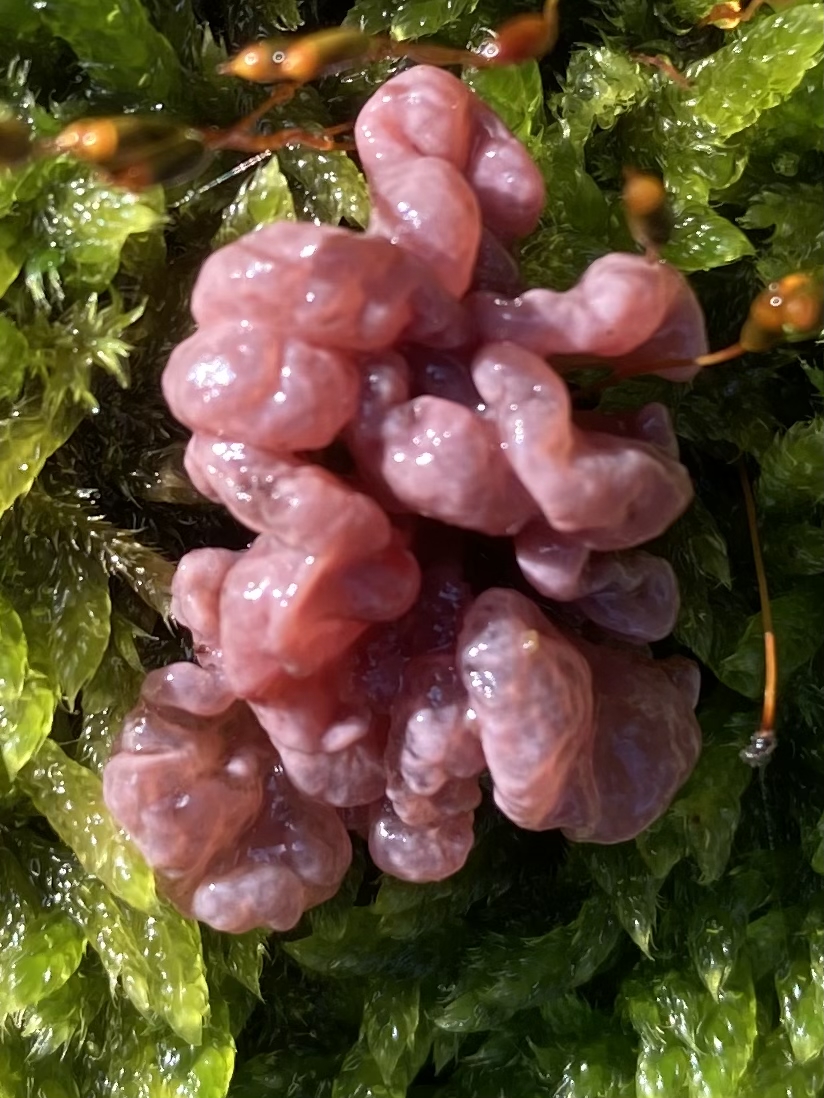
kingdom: Fungi
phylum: Ascomycota
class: Leotiomycetes
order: Helotiales
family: Gelatinodiscaceae
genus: Ascocoryne
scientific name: Ascocoryne sarcoides
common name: rødlilla sejskive
